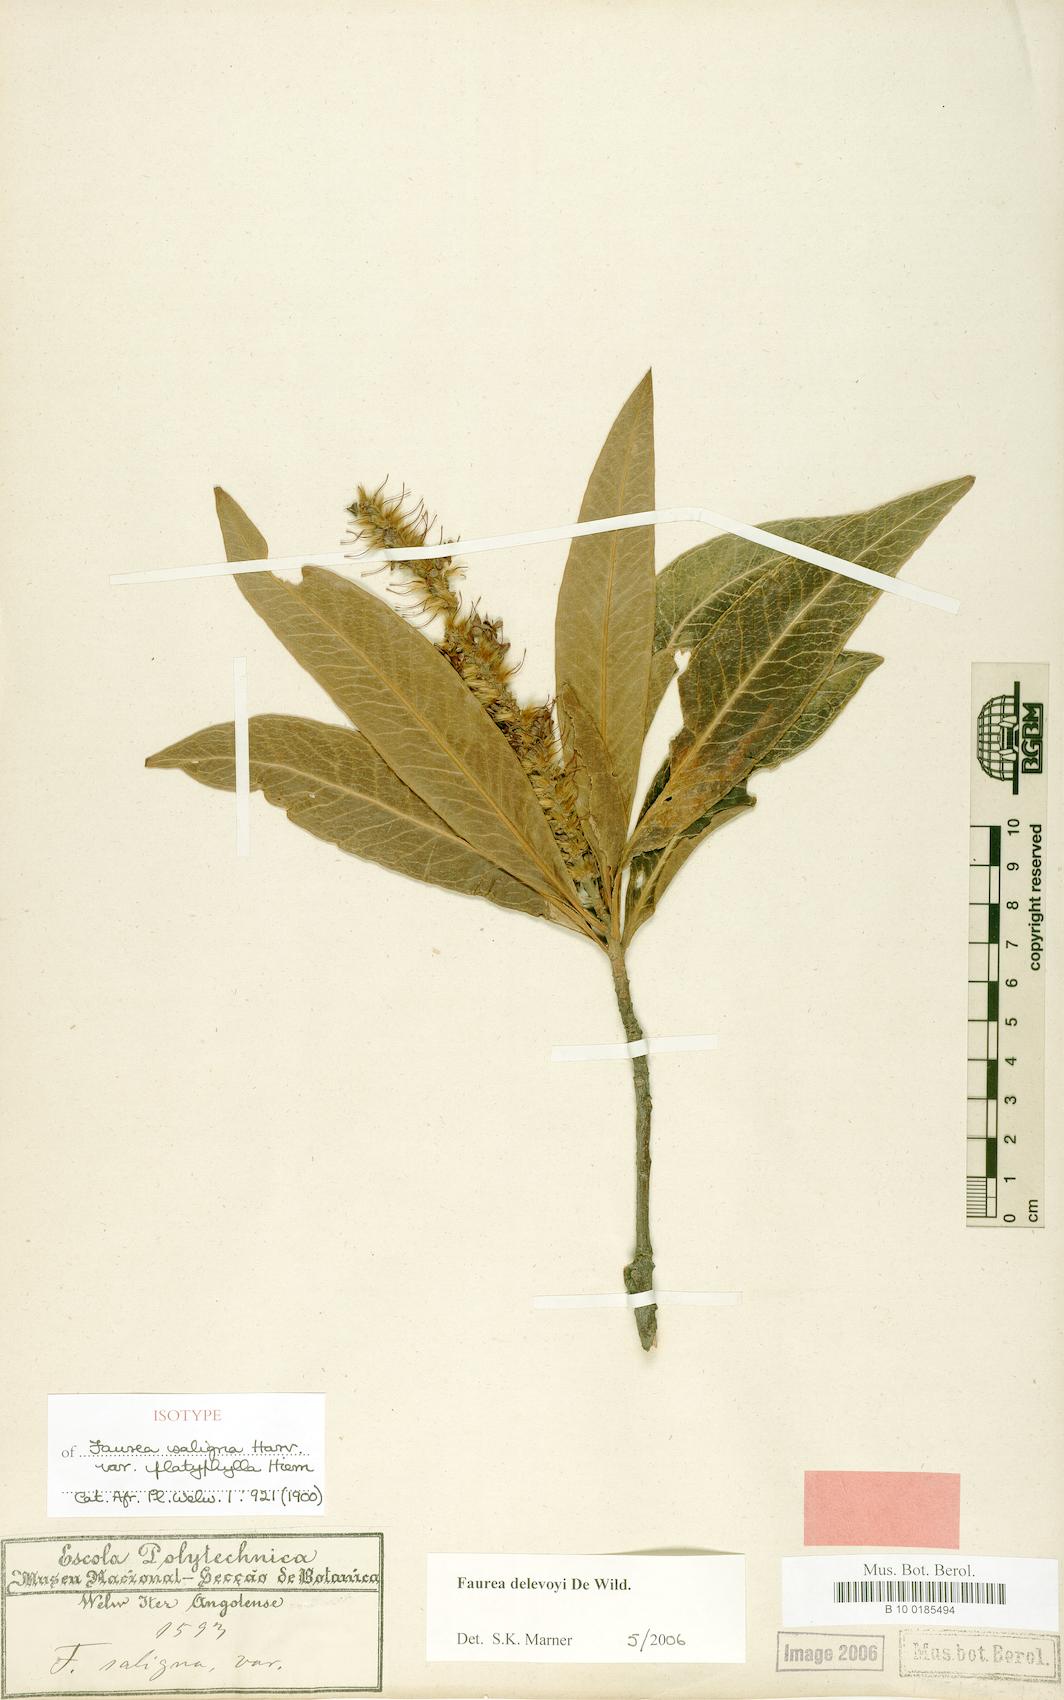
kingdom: Plantae
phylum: Tracheophyta
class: Magnoliopsida
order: Proteales
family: Proteaceae
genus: Faurea
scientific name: Faurea delevoyi
